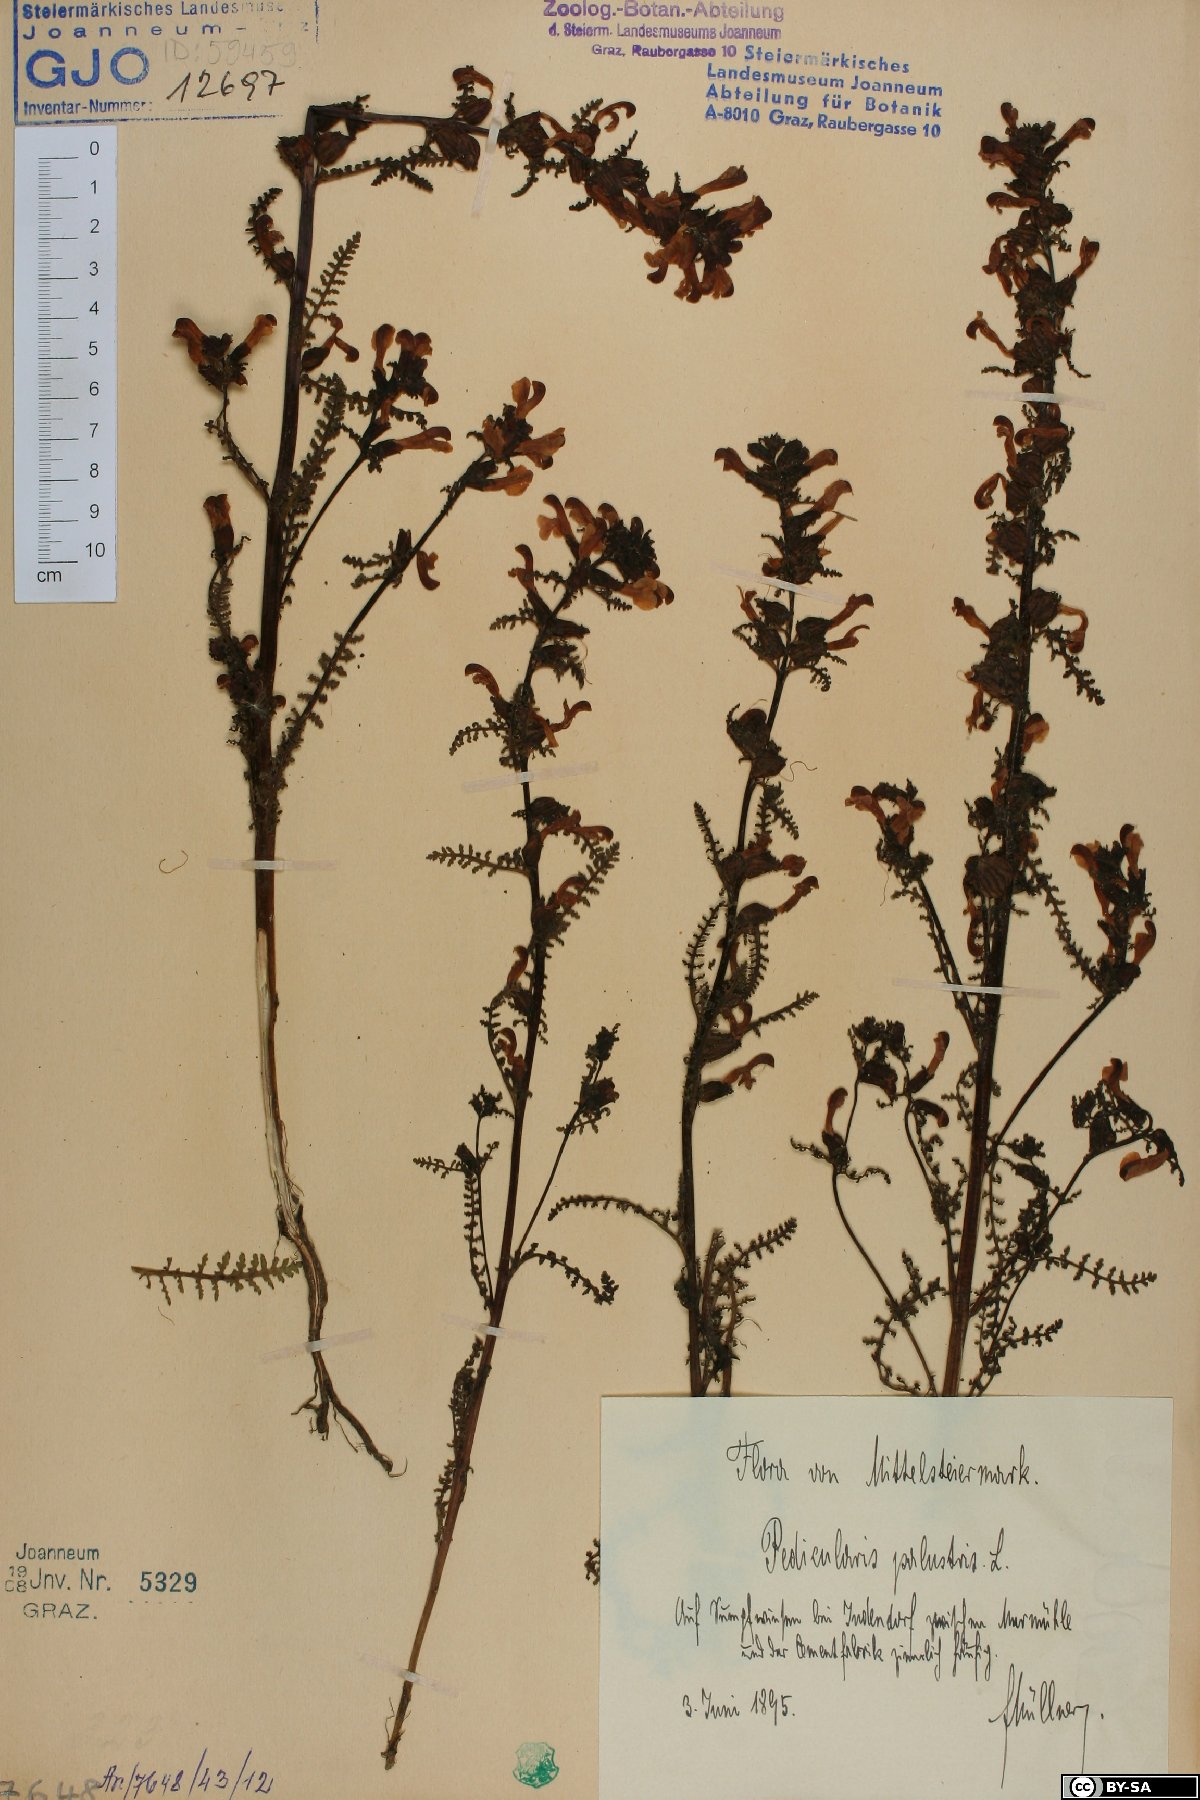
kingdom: Plantae
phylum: Tracheophyta
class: Magnoliopsida
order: Lamiales
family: Orobanchaceae
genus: Pedicularis
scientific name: Pedicularis palustris
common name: Marsh lousewort
